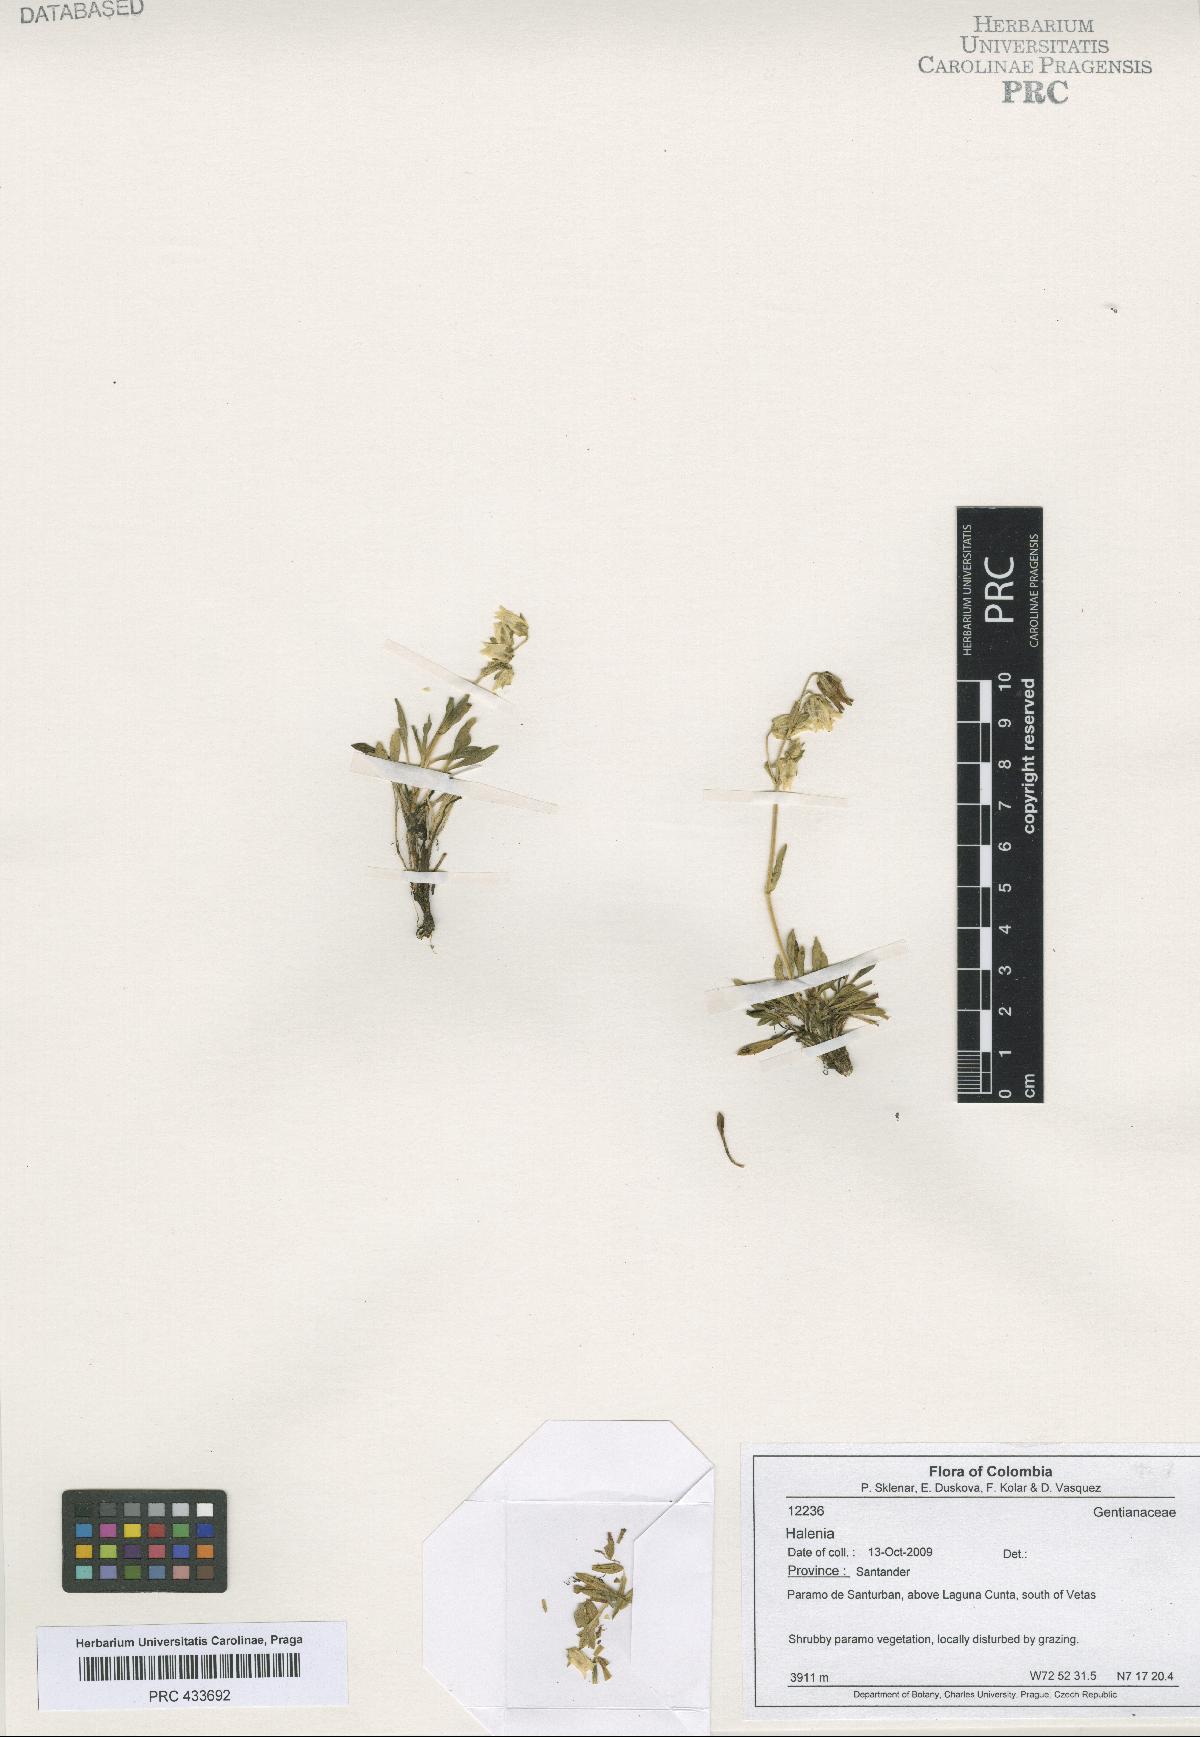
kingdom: Plantae
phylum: Tracheophyta
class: Magnoliopsida
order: Gentianales
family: Gentianaceae
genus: Halenia
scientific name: Halenia
